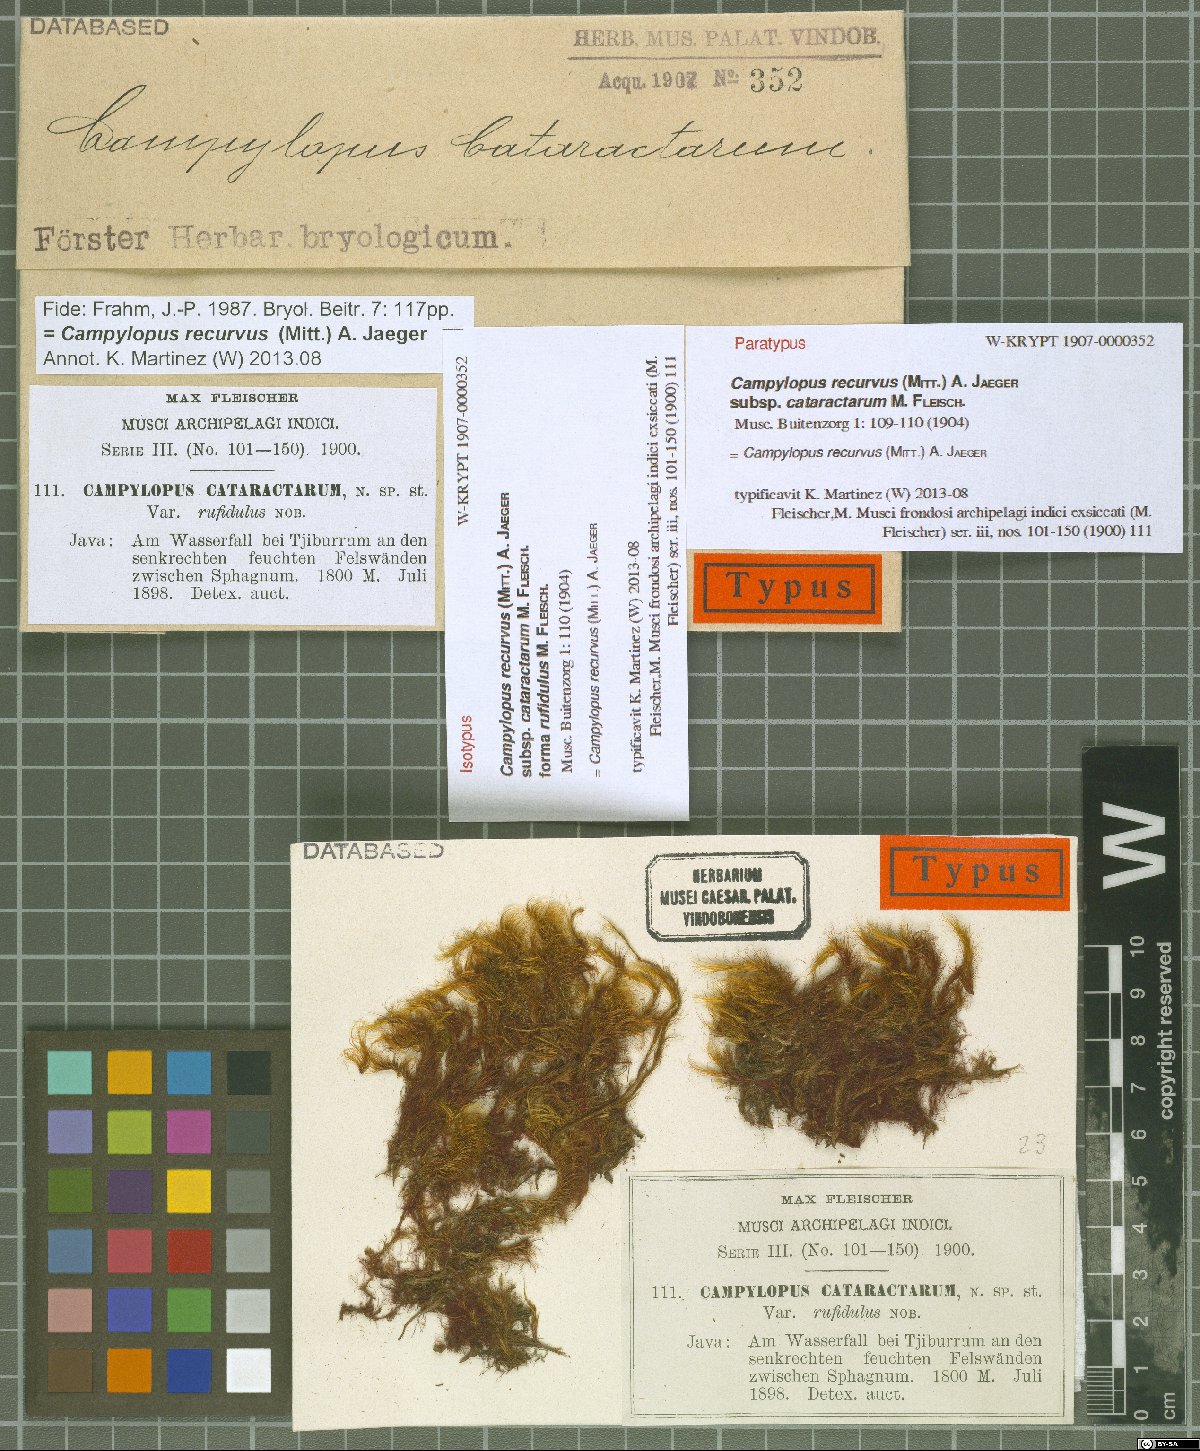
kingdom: Plantae
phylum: Bryophyta
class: Bryopsida
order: Dicranales
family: Leucobryaceae
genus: Campylopus
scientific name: Campylopus recurvus
